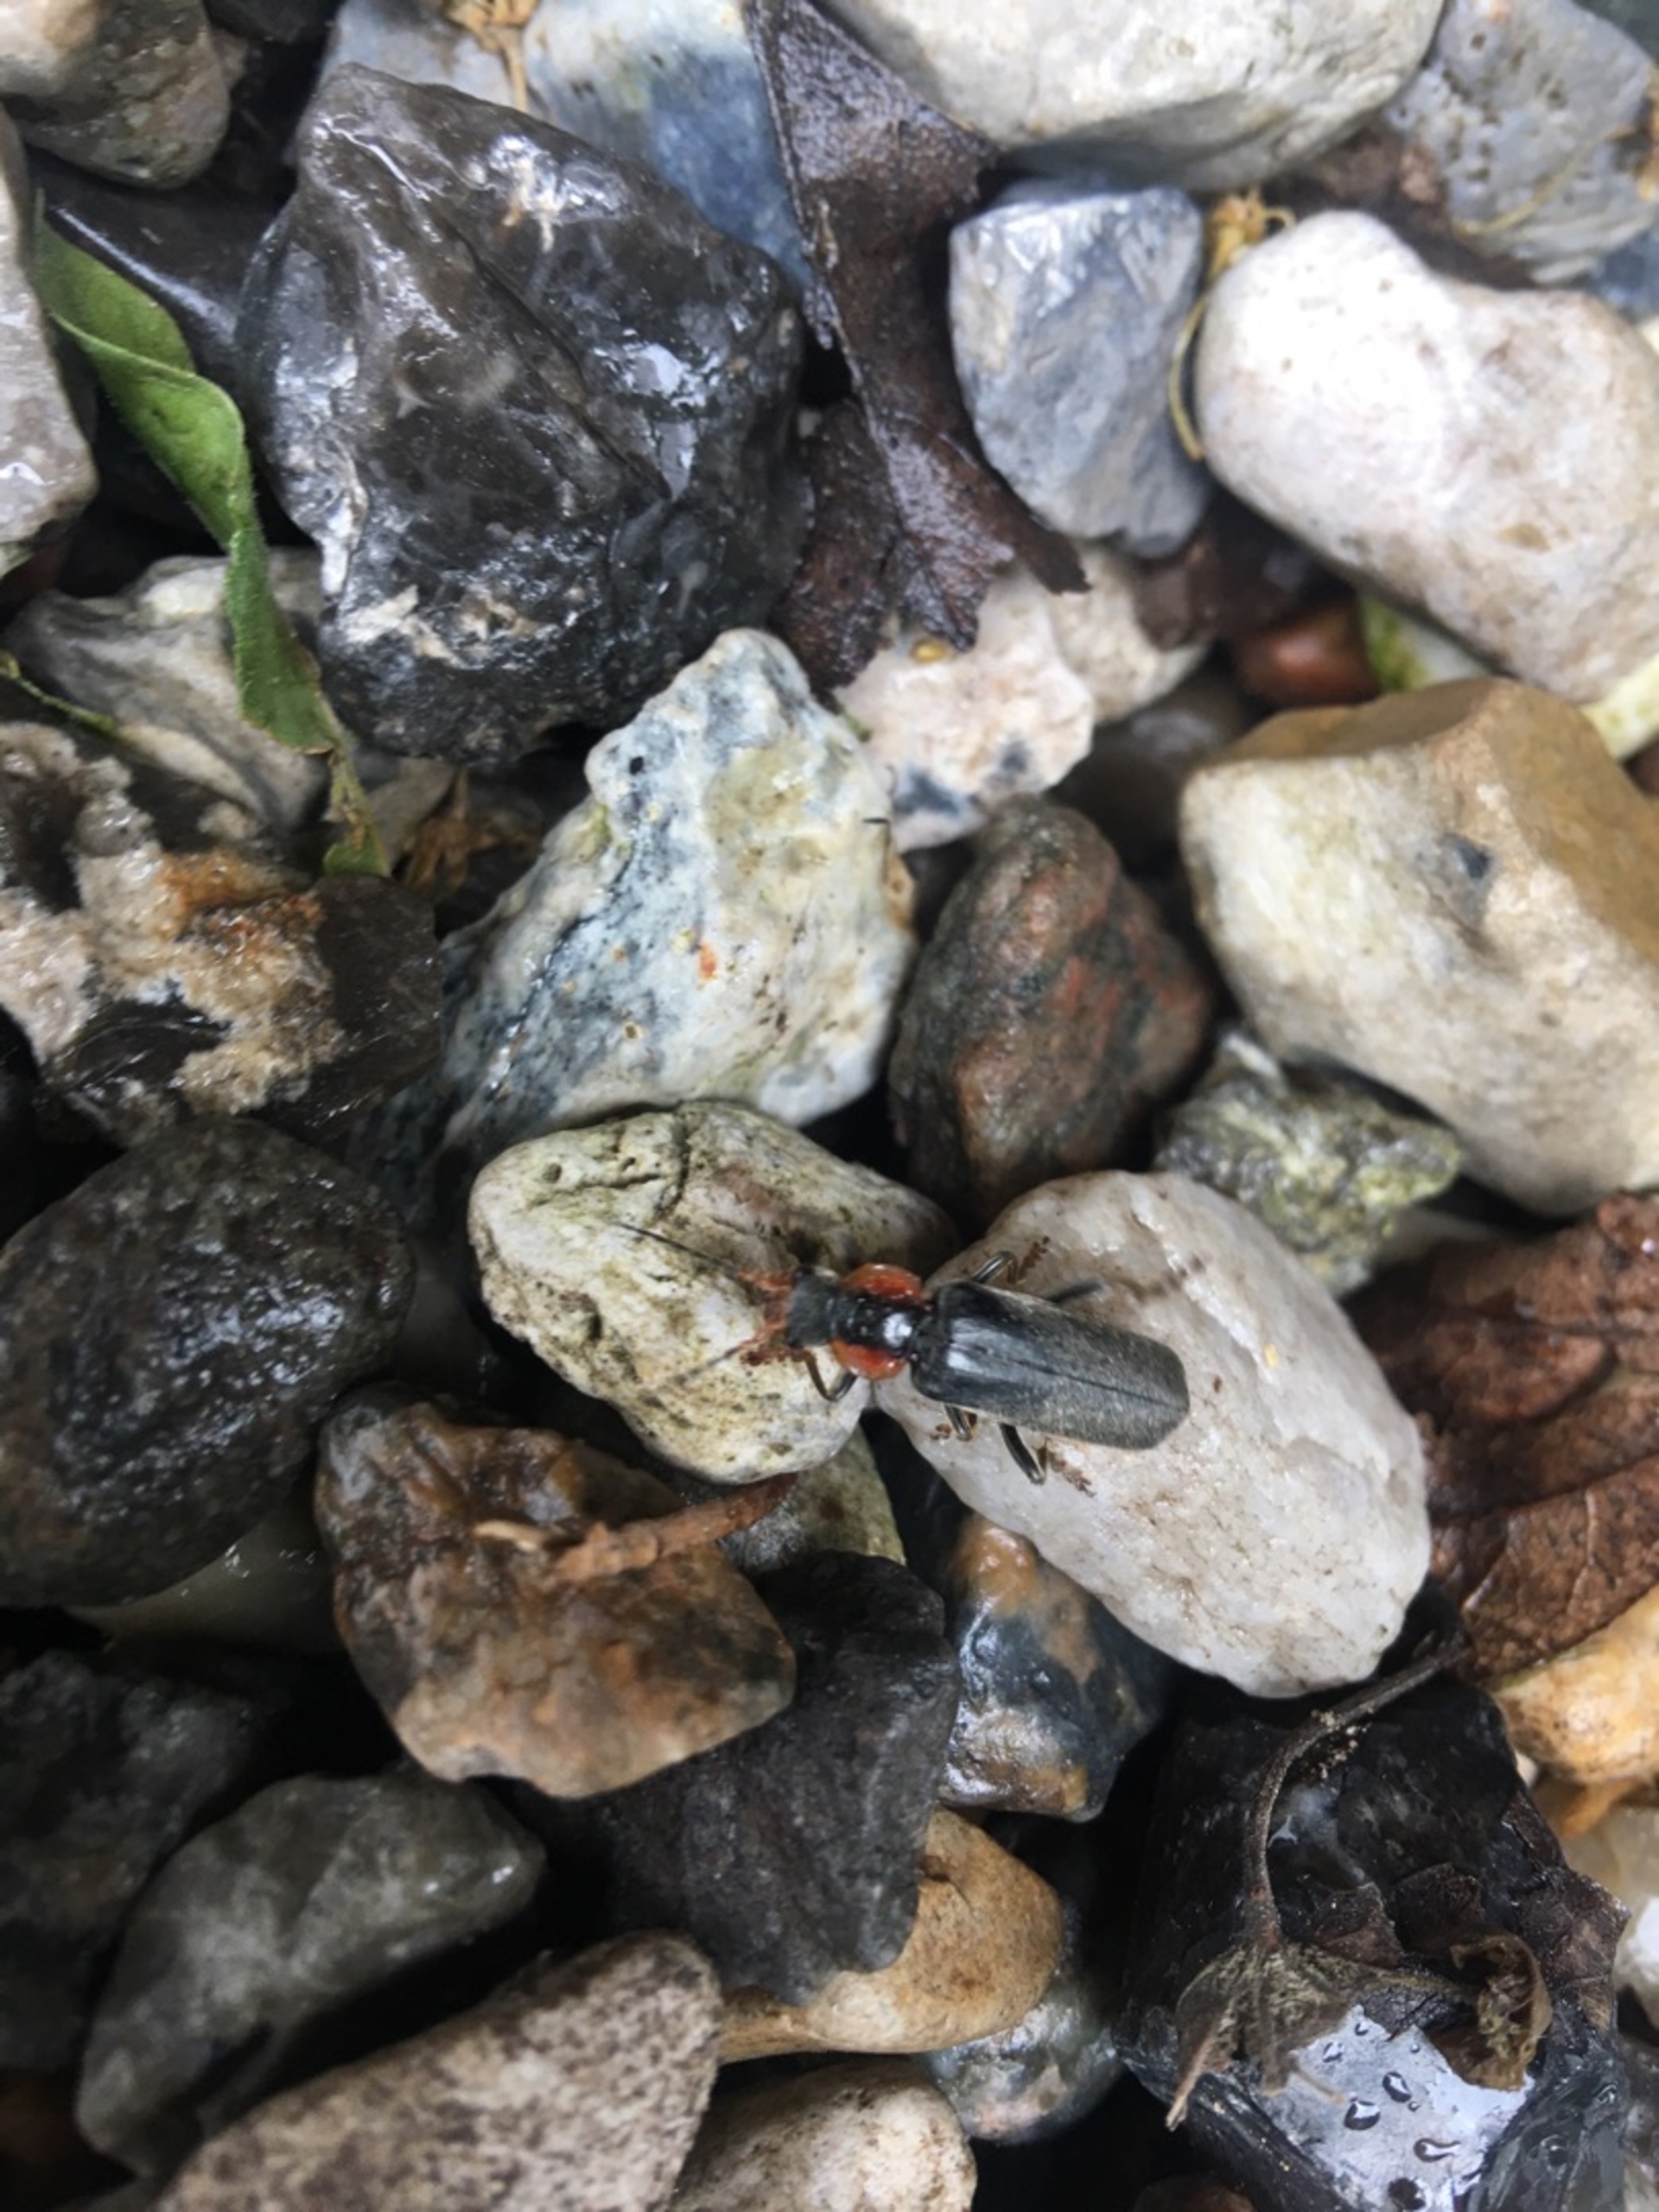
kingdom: Animalia
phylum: Arthropoda
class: Insecta
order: Coleoptera
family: Cantharidae
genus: Cantharis
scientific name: Cantharis fusca
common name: Stor blødvinge
